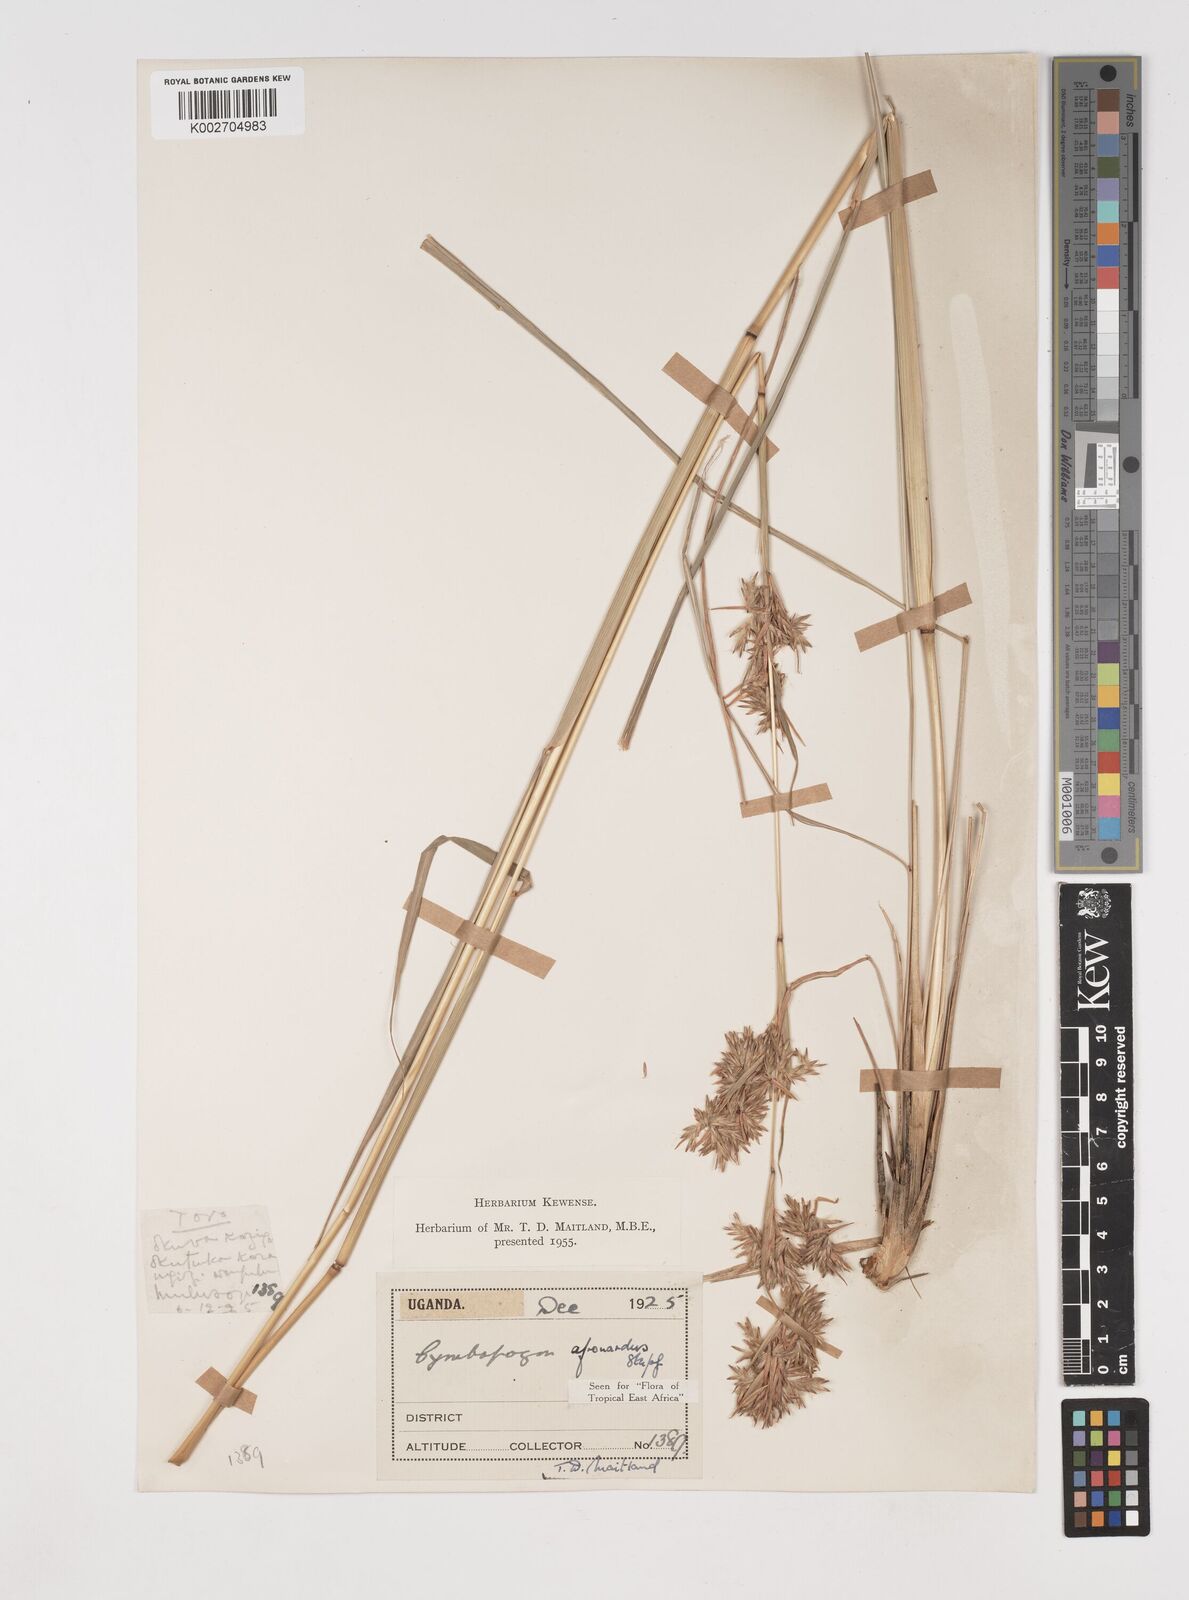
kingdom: Plantae
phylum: Tracheophyta
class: Liliopsida
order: Poales
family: Poaceae
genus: Cymbopogon
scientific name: Cymbopogon nardus
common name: Giant turpentine grass
